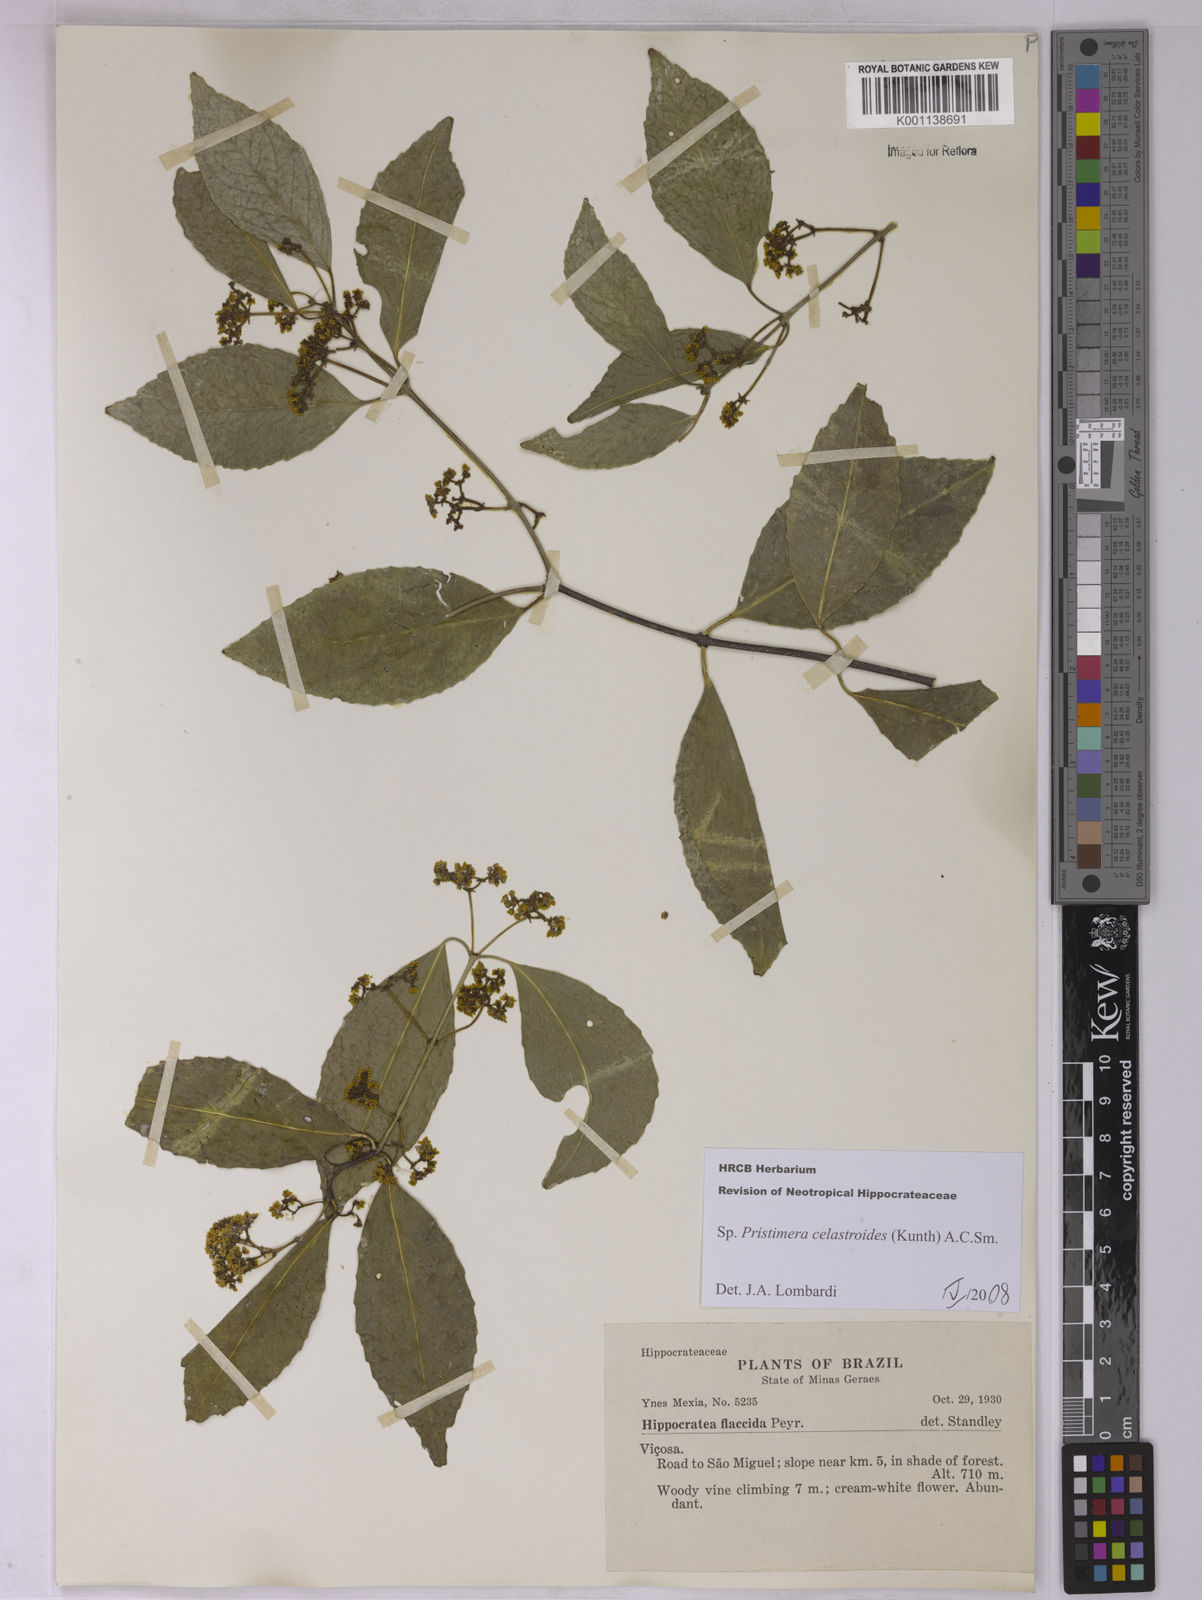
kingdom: Plantae
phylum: Tracheophyta
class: Magnoliopsida
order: Celastrales
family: Celastraceae
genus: Pristimera
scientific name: Pristimera celastroides
